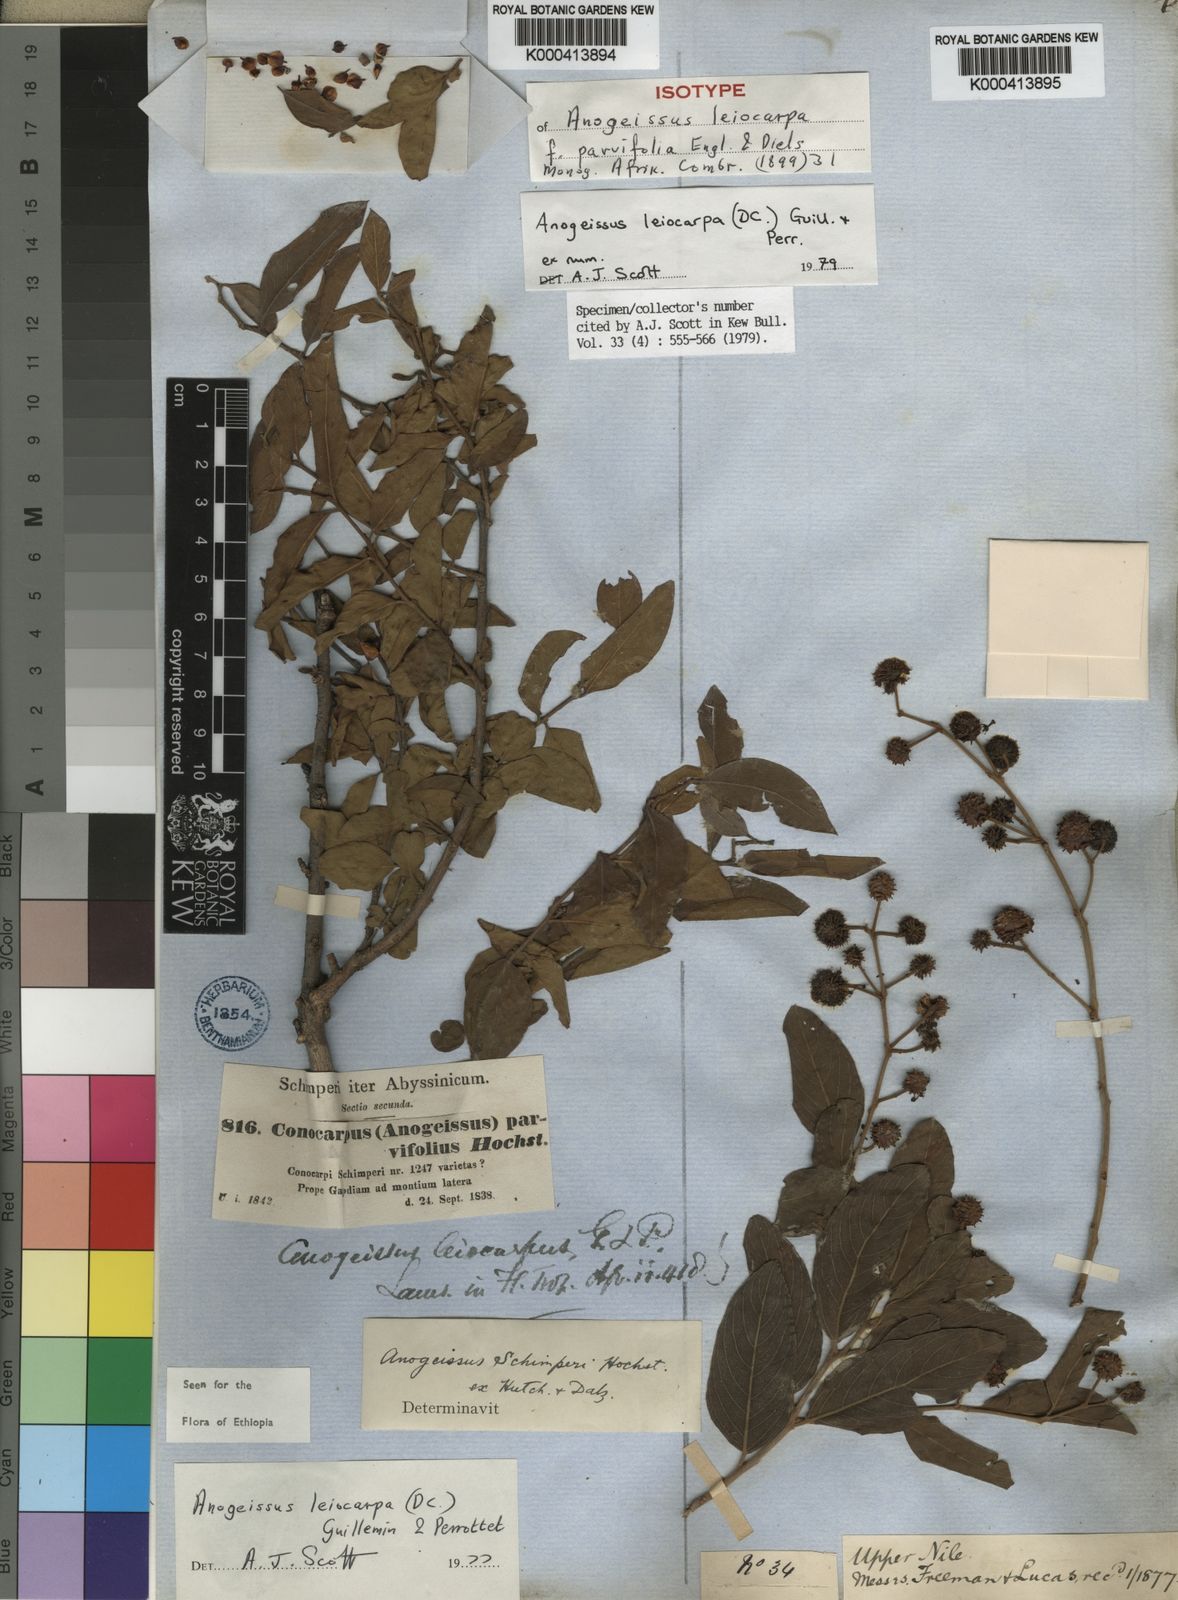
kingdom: Plantae
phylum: Tracheophyta
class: Magnoliopsida
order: Myrtales
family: Combretaceae
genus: Terminalia
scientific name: Terminalia leiocarpa
